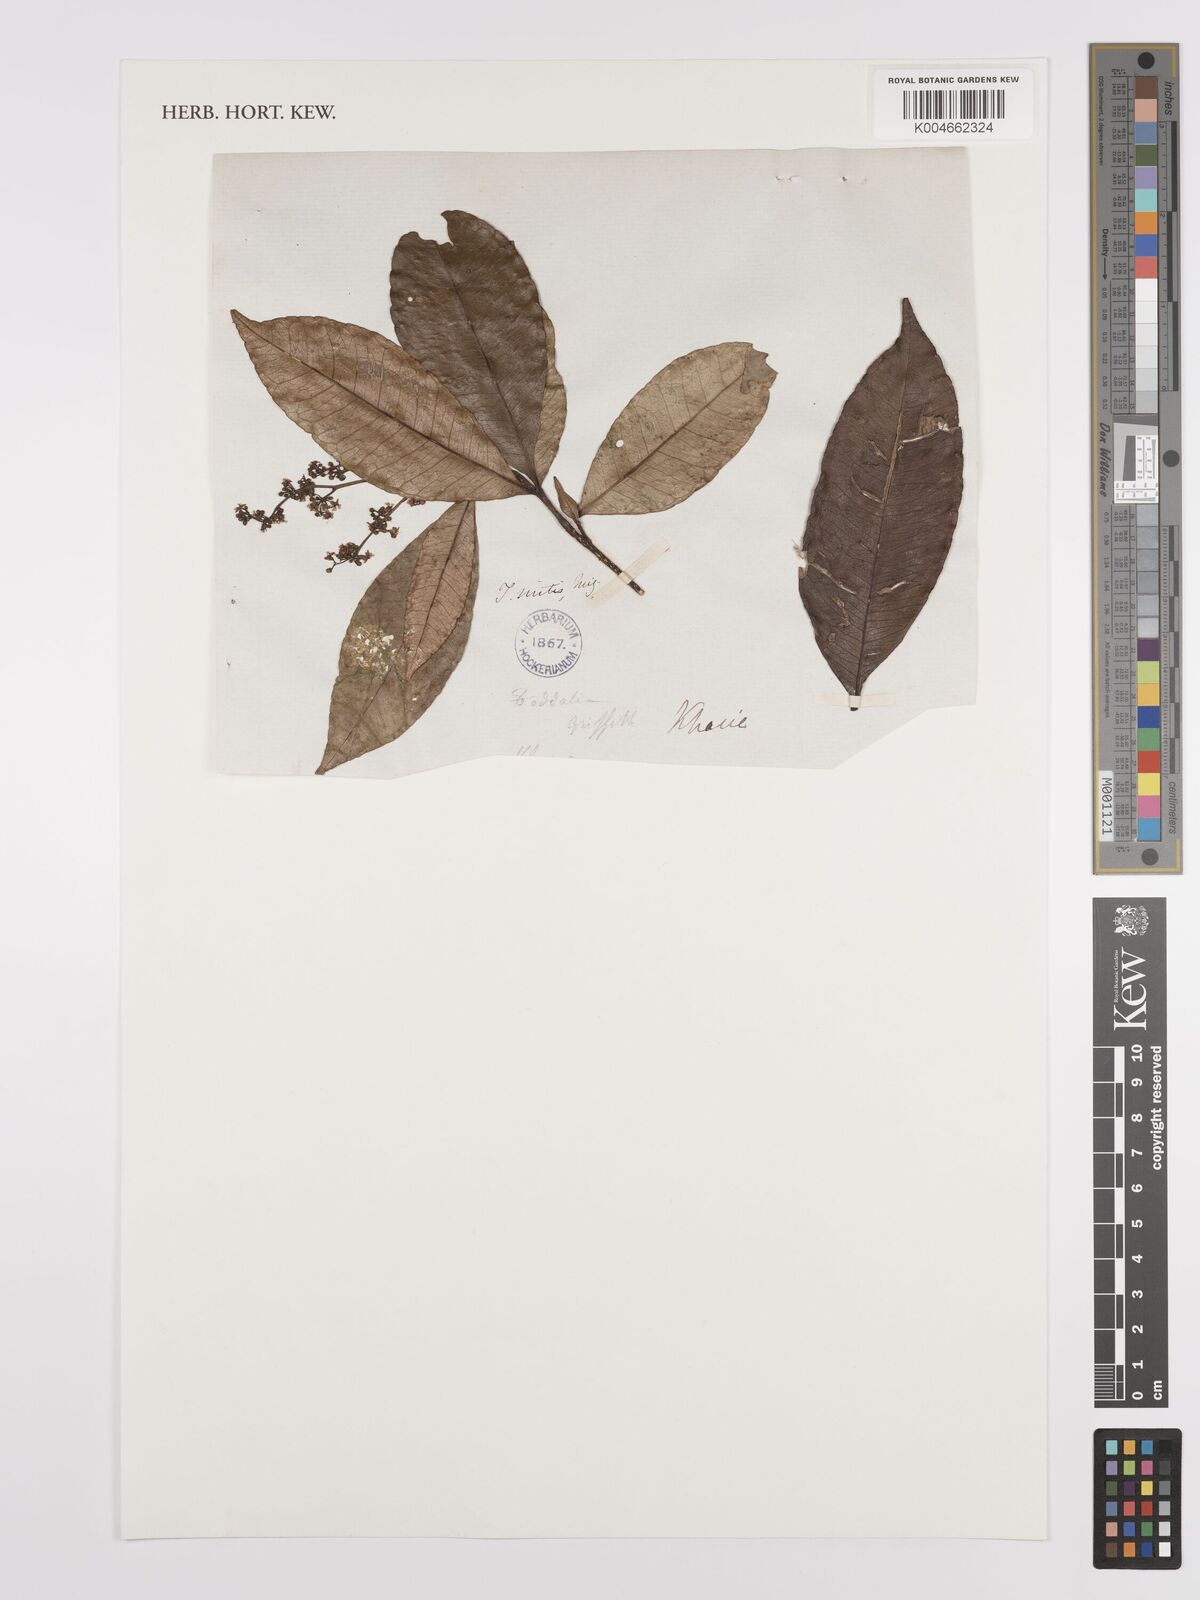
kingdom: Plantae
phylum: Tracheophyta
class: Magnoliopsida
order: Sapindales
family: Rutaceae
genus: Zanthoxylum
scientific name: Zanthoxylum ovalifolium
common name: Thorny yellowwood
